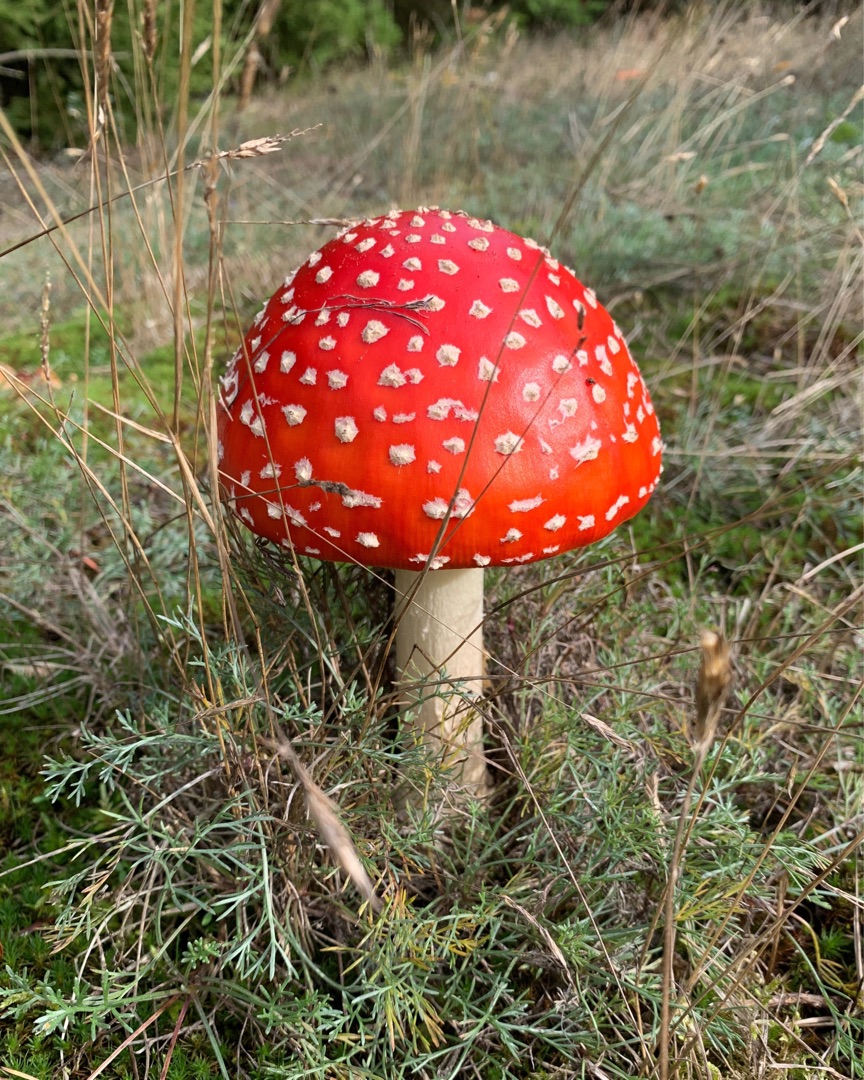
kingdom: Fungi
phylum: Basidiomycota
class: Agaricomycetes
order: Agaricales
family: Amanitaceae
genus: Amanita
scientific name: Amanita muscaria
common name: Rød fluesvamp
